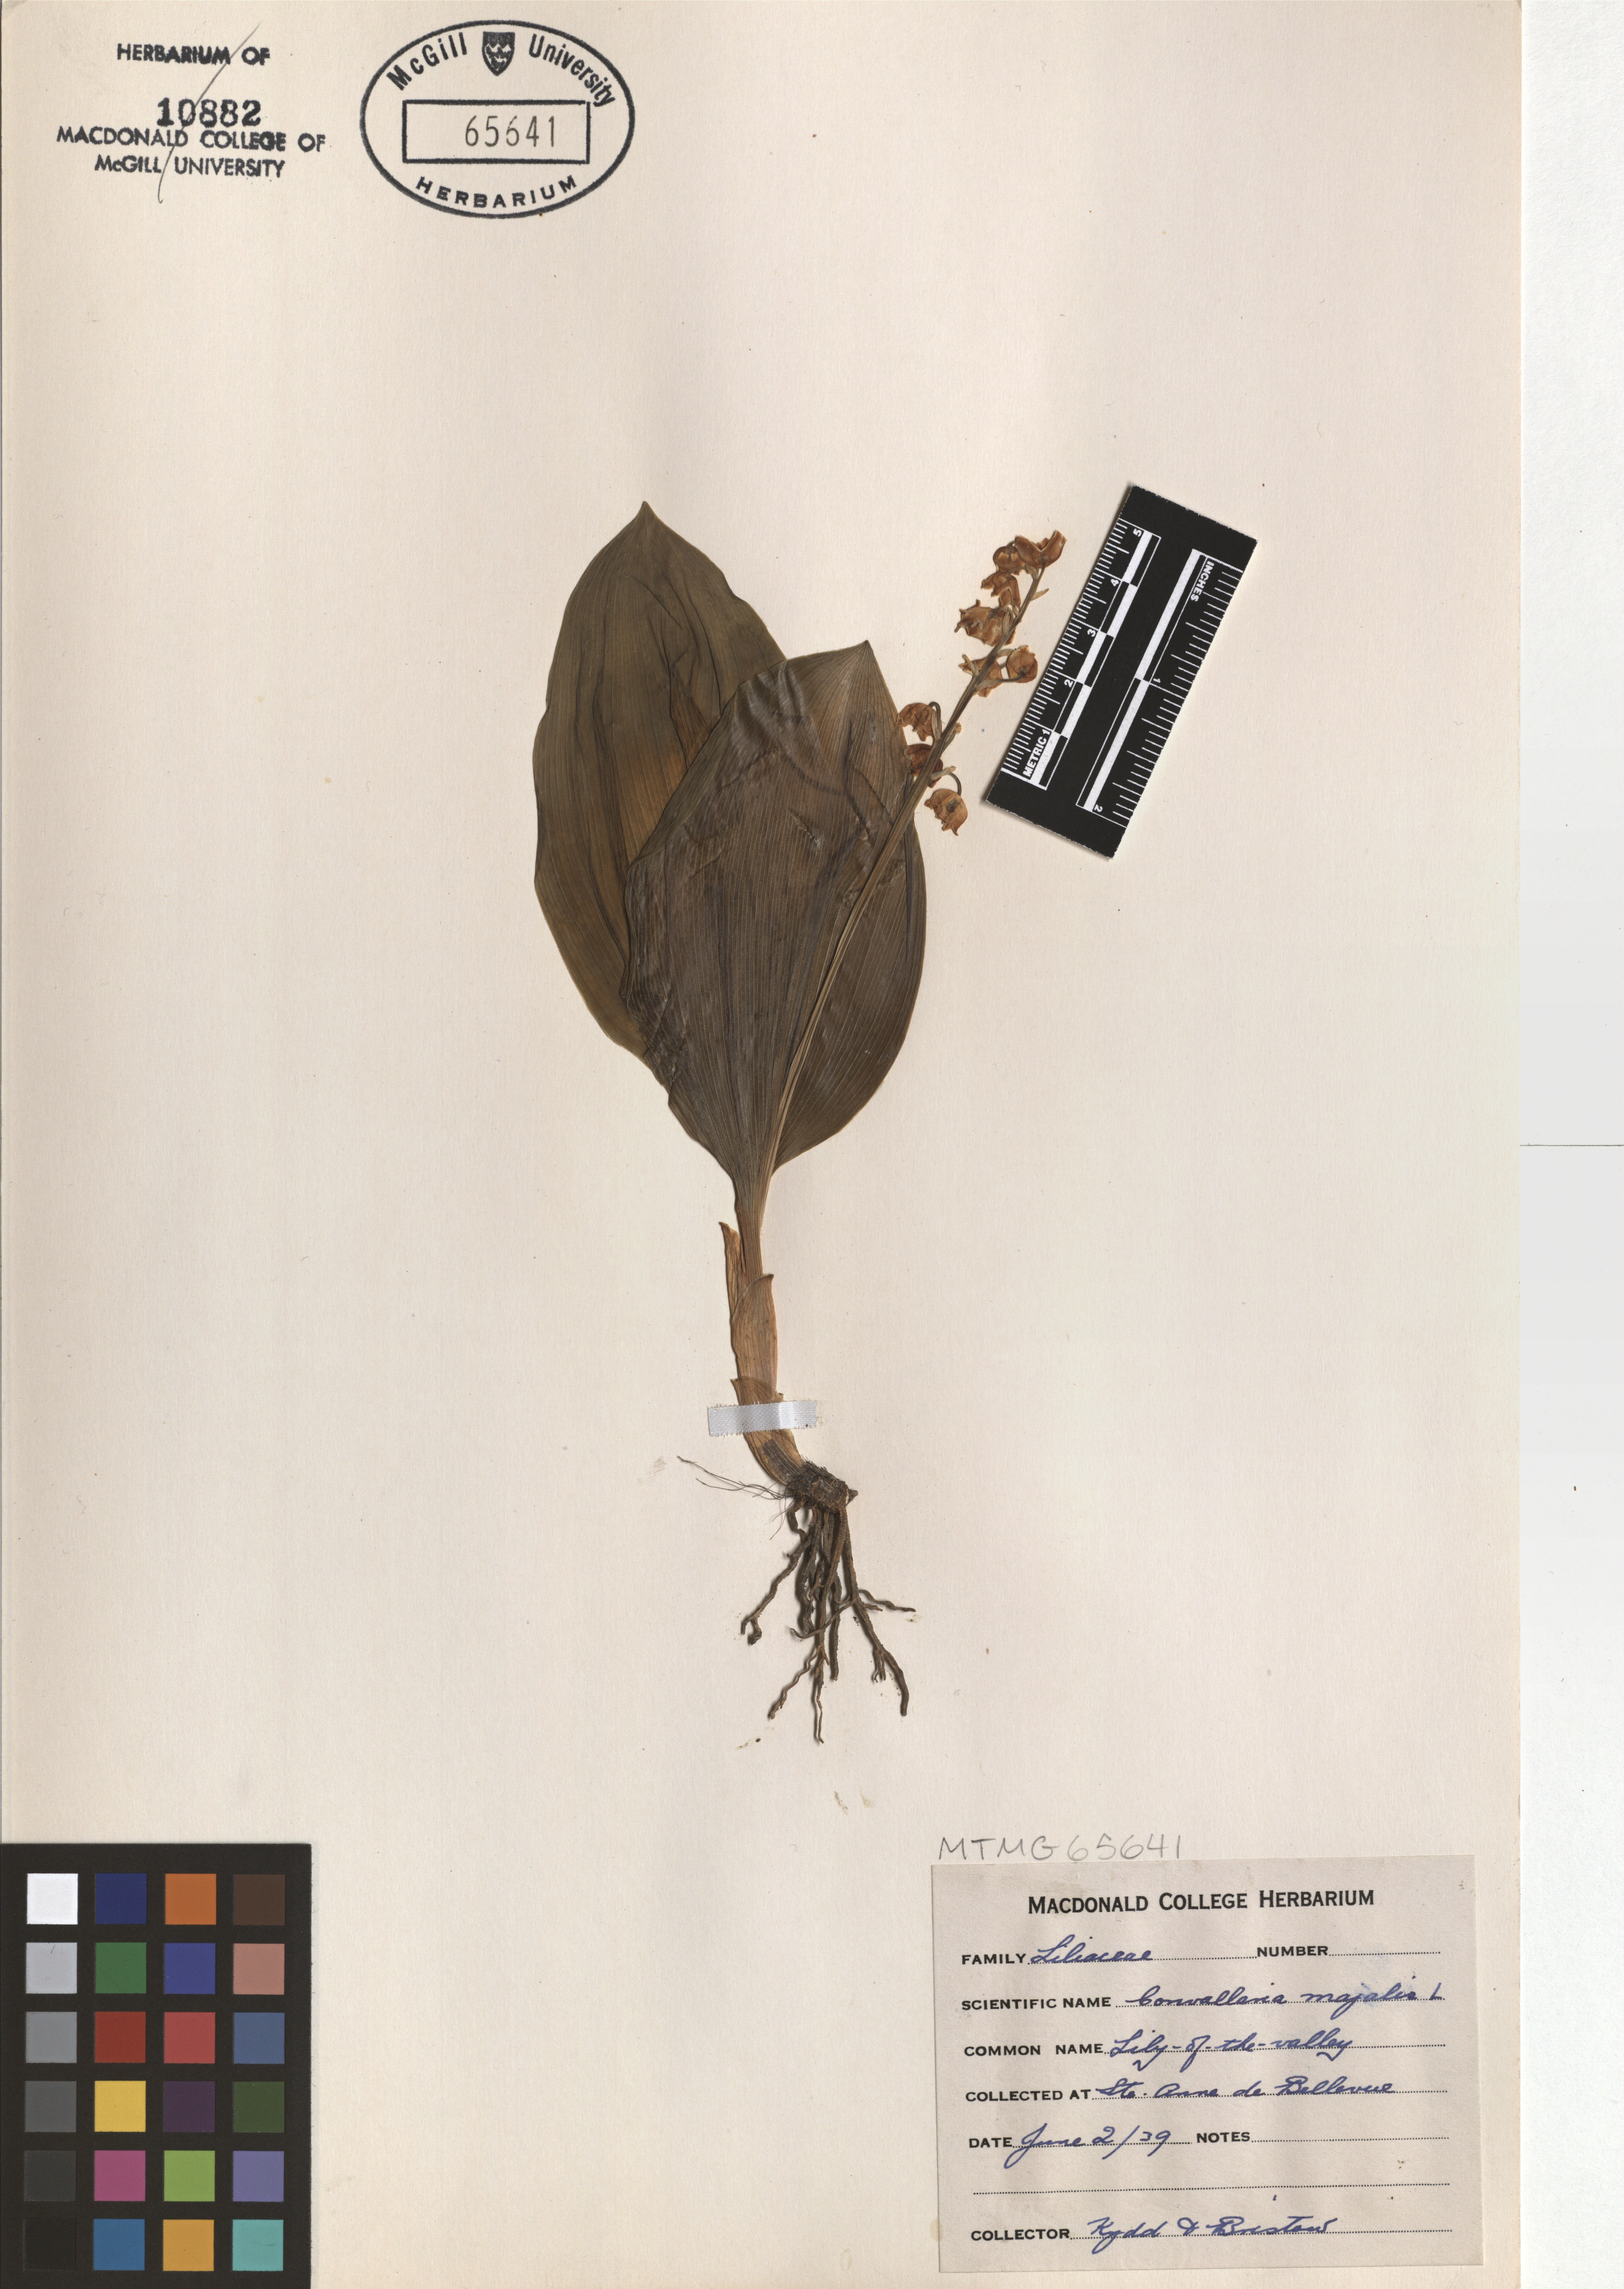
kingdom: Plantae
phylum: Tracheophyta
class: Liliopsida
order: Asparagales
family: Asparagaceae
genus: Convallaria
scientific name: Convallaria majalis
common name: Lily-of-the-valley
